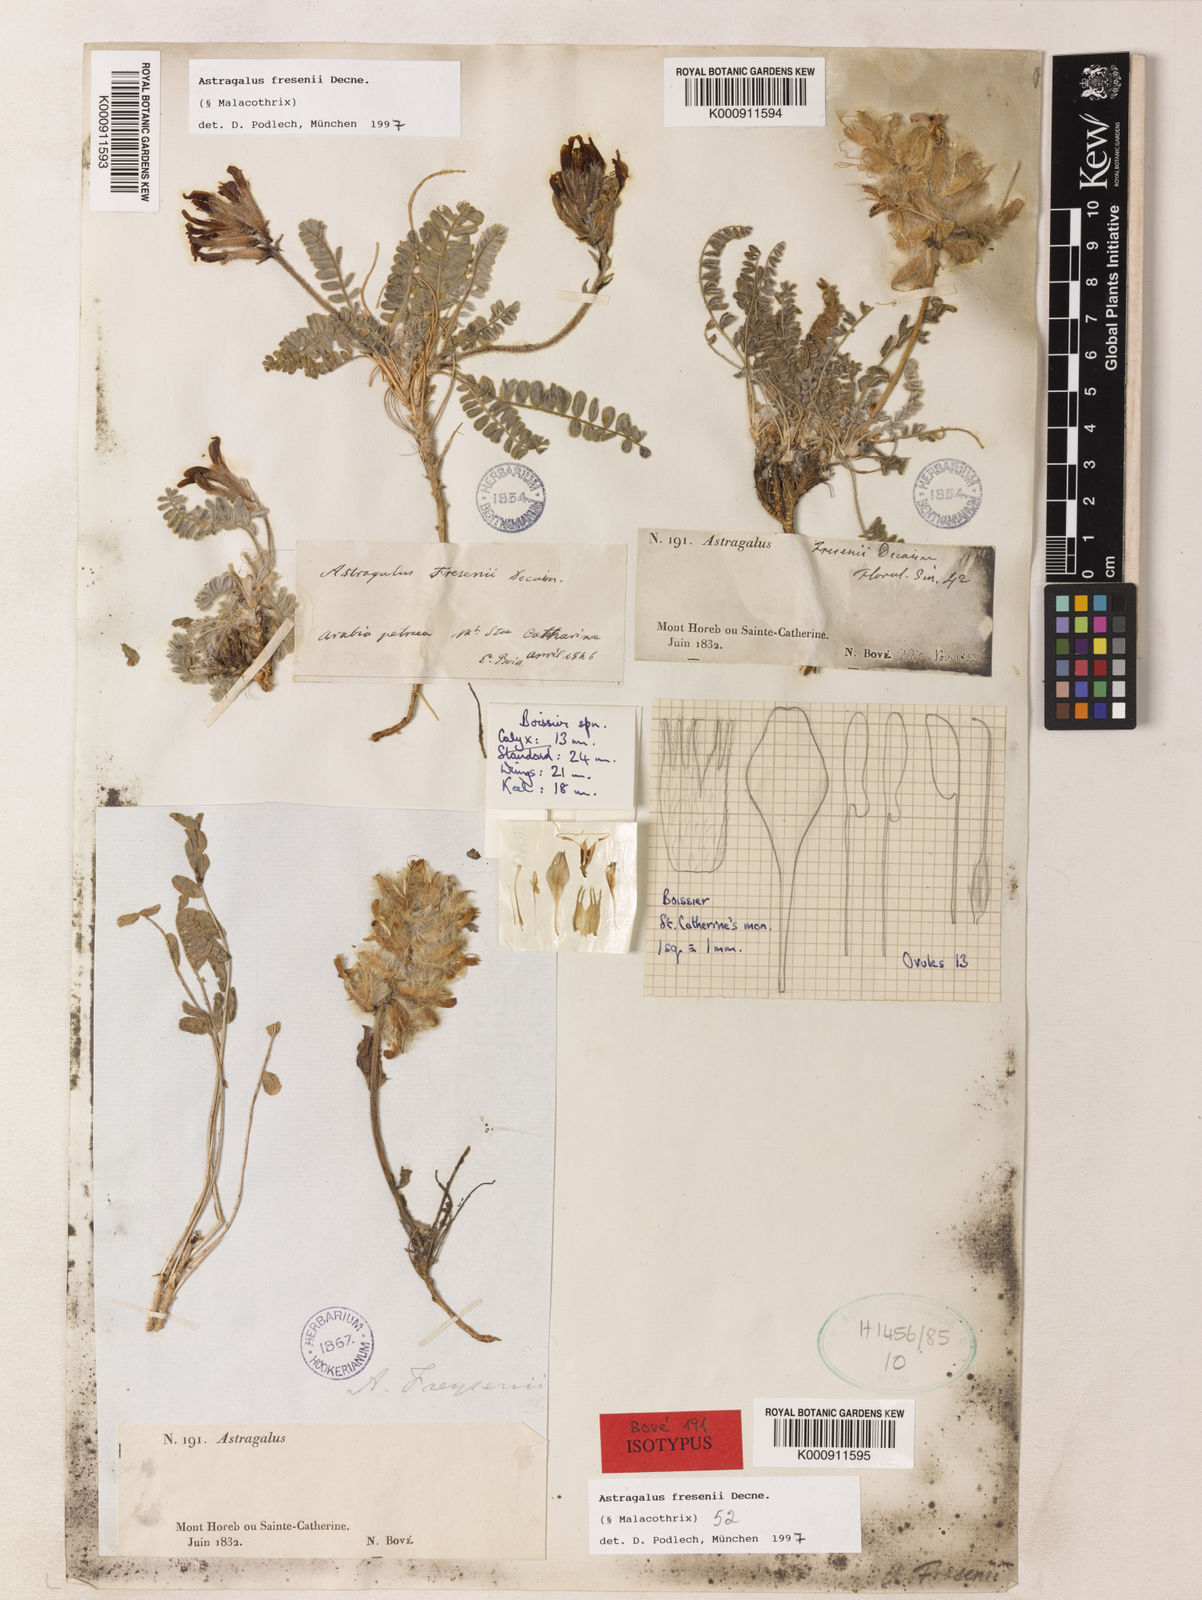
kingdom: Plantae
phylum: Tracheophyta
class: Magnoliopsida
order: Fabales
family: Fabaceae
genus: Astragalus
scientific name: Astragalus fresenii
